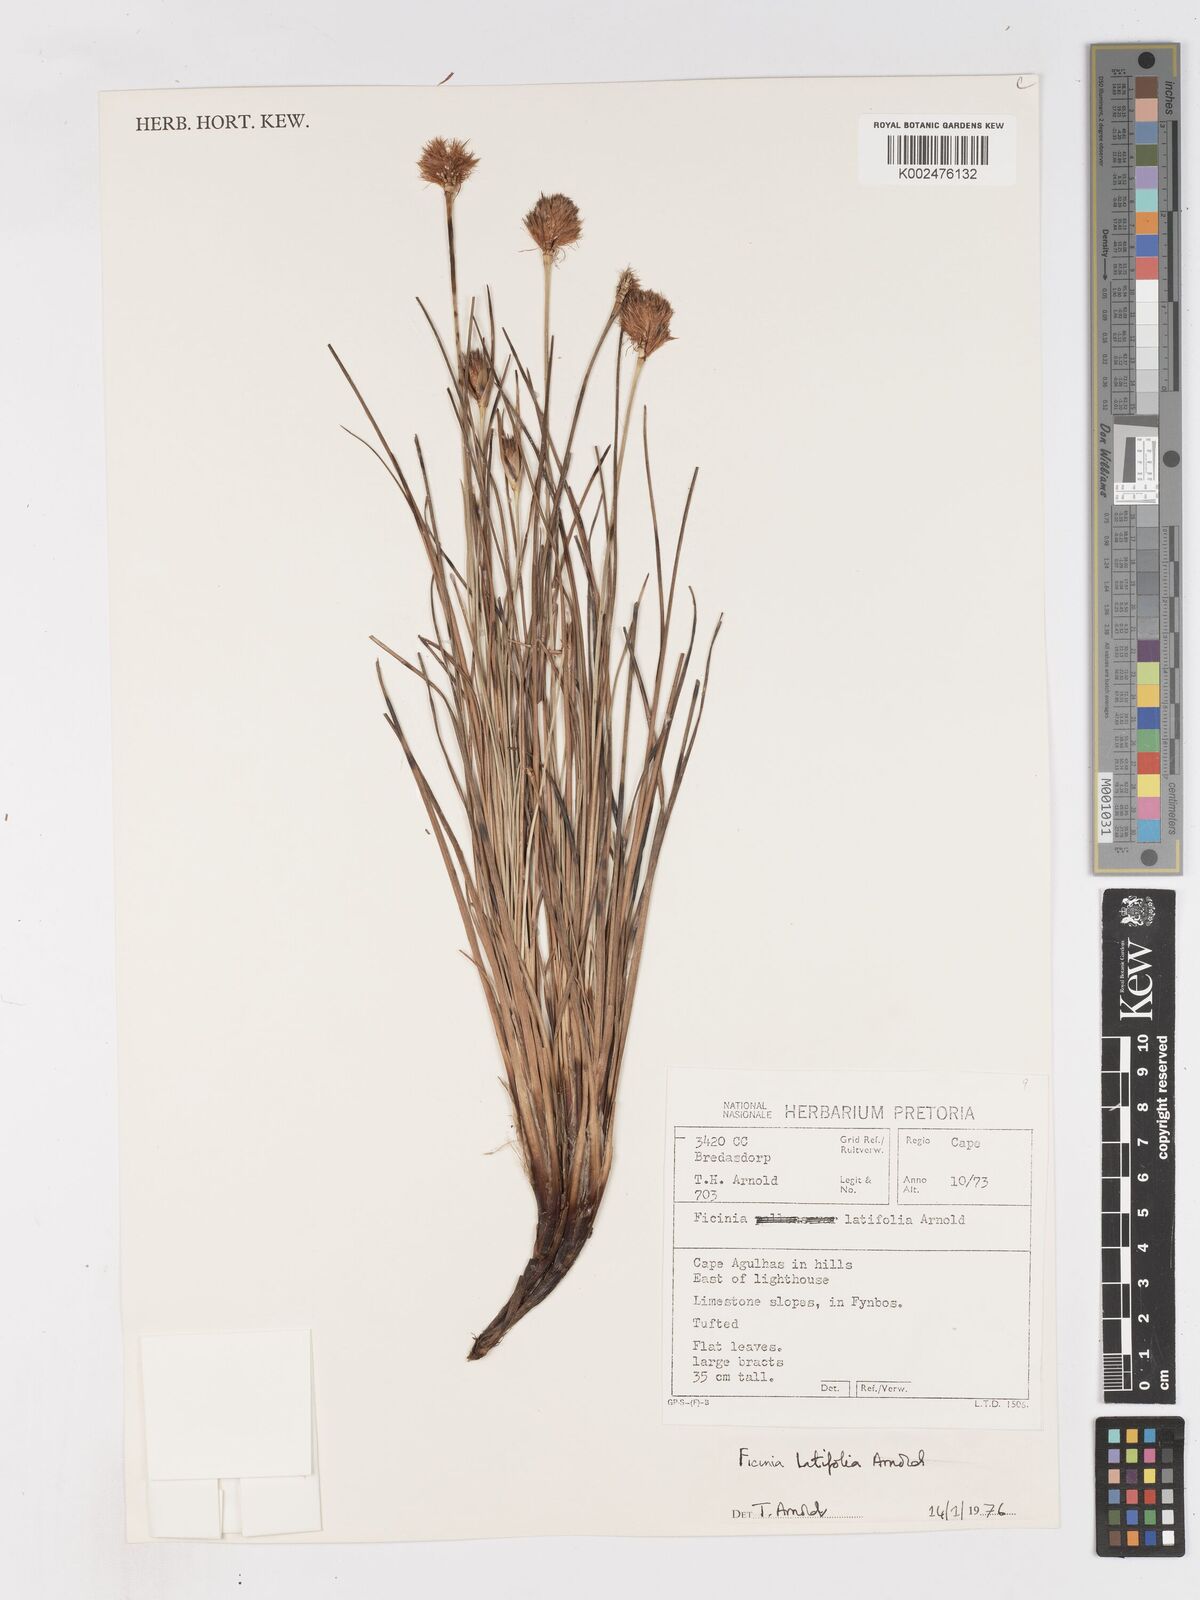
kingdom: Plantae
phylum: Tracheophyta
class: Liliopsida
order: Poales
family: Cyperaceae
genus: Ficinia
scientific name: Ficinia latifolia
